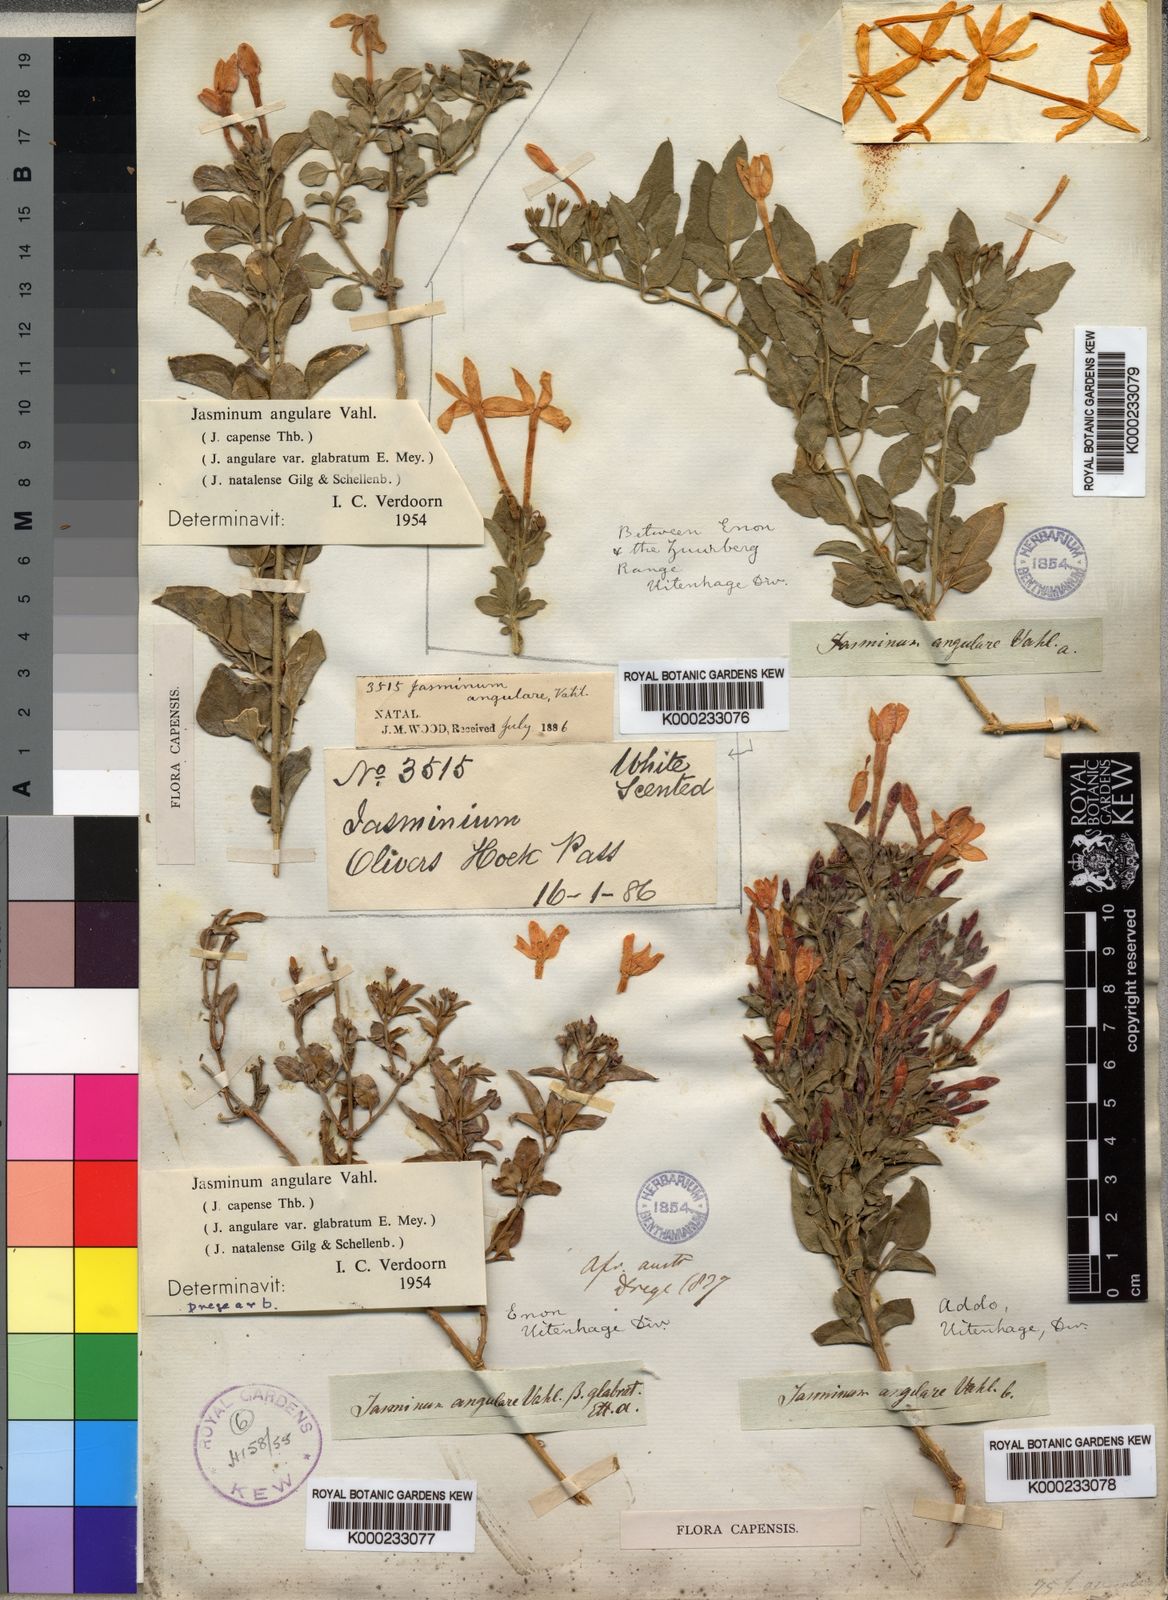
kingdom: Plantae
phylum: Tracheophyta
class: Magnoliopsida
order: Lamiales
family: Oleaceae
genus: Jasminum
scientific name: Jasminum angulare
